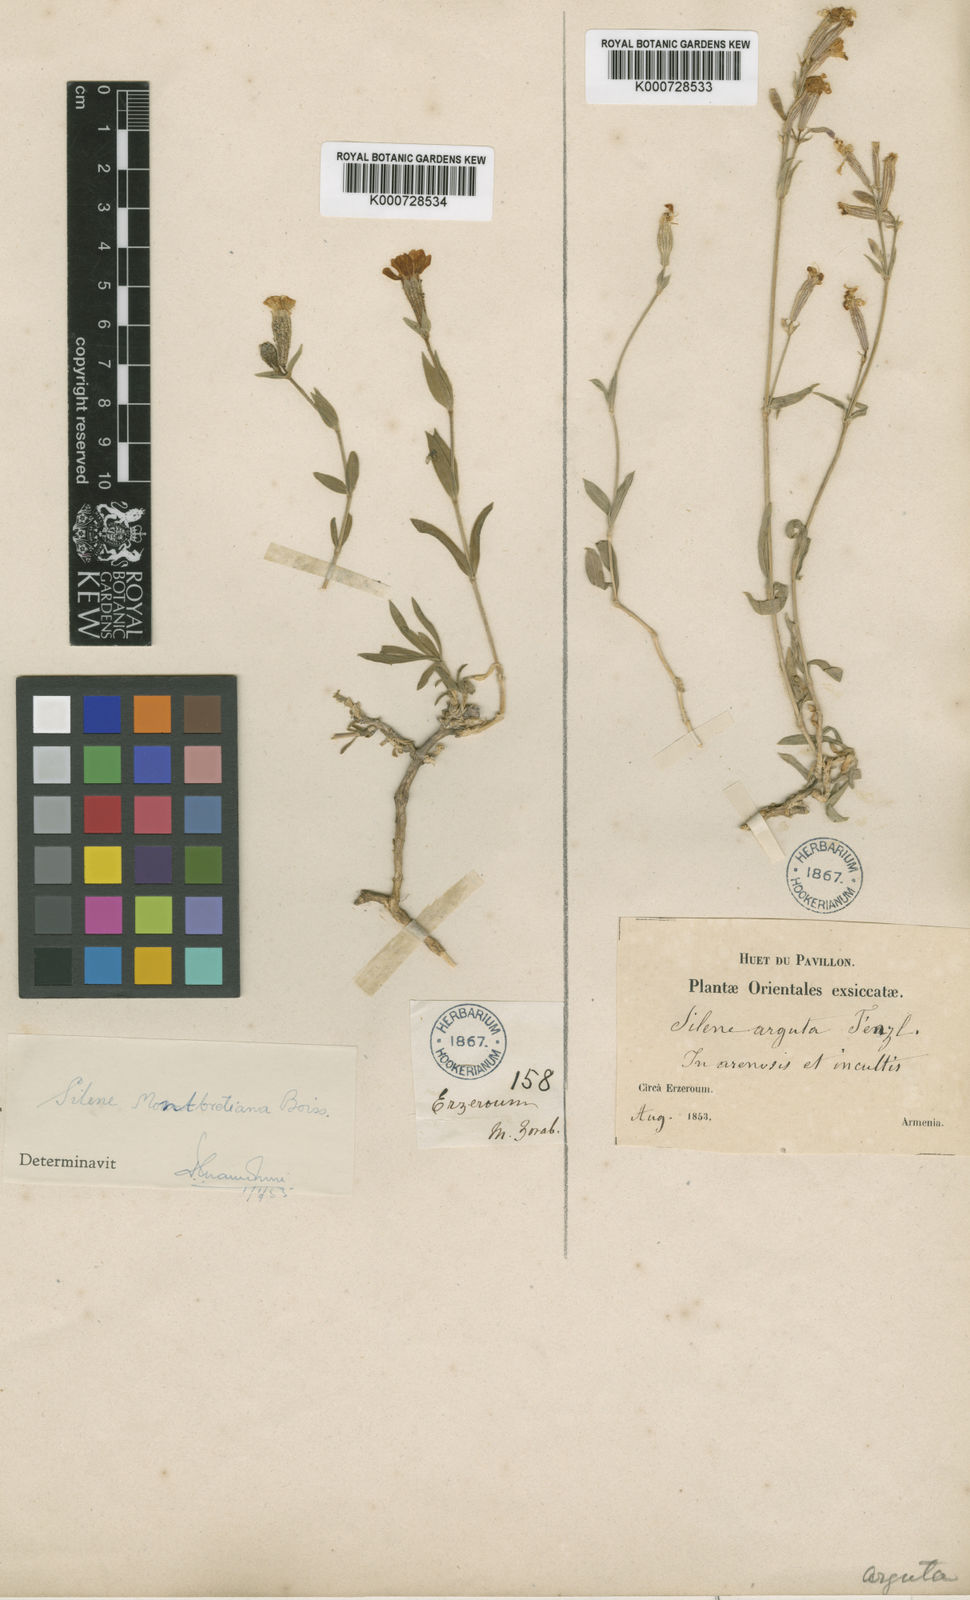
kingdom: Plantae
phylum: Tracheophyta
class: Magnoliopsida
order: Caryophyllales
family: Caryophyllaceae
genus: Silene
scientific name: Silene arguta
